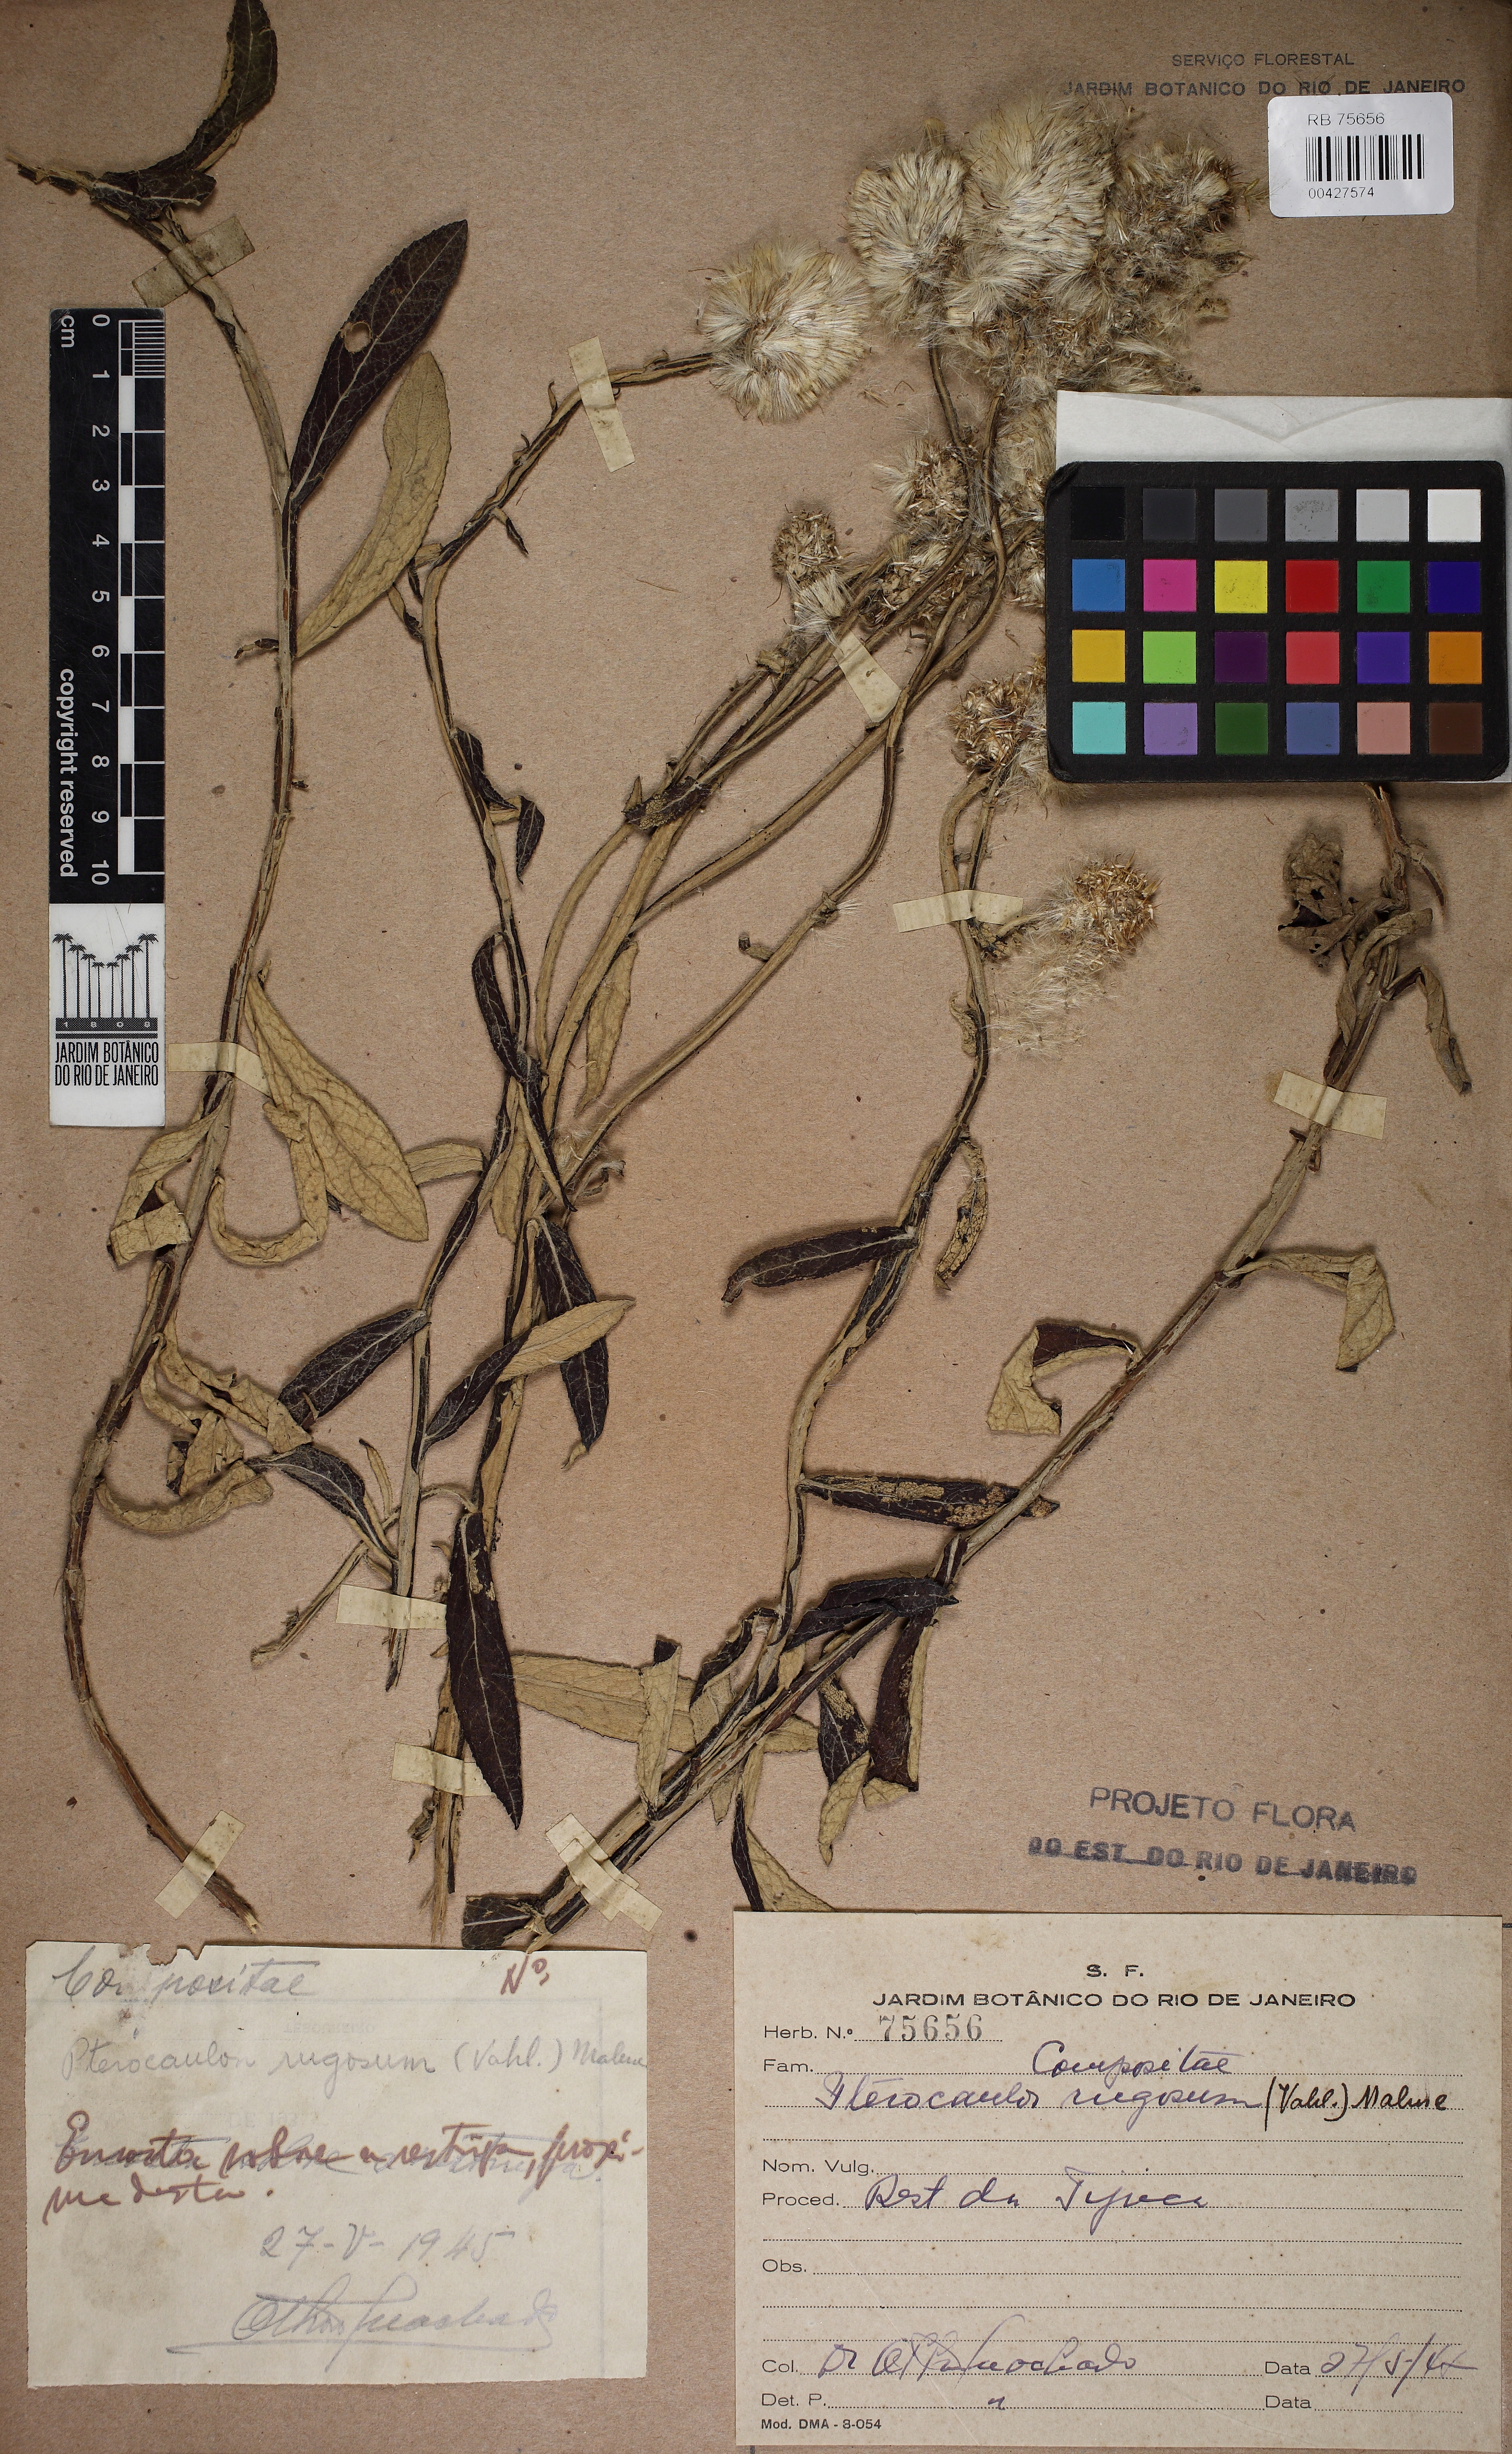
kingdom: Plantae
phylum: Tracheophyta
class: Magnoliopsida
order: Asterales
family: Asteraceae
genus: Pterocaulon
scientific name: Pterocaulon alopecuroides
